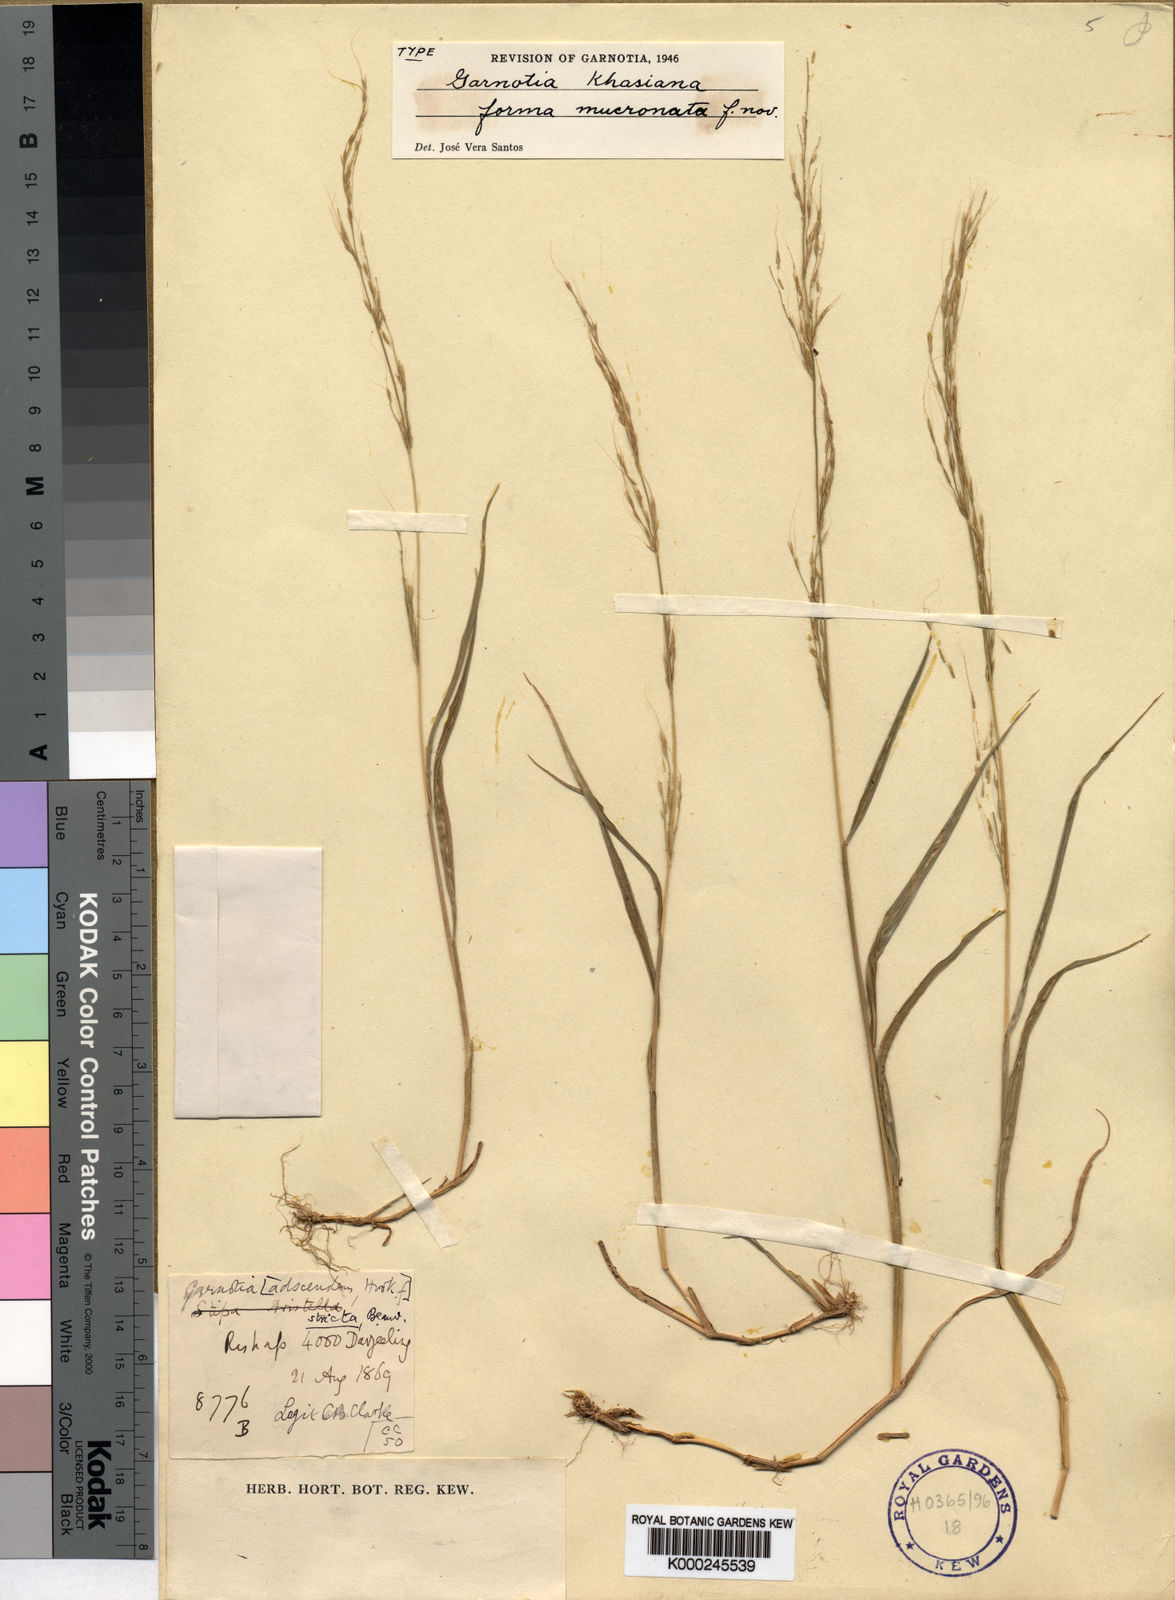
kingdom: Plantae
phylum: Tracheophyta
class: Liliopsida
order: Poales
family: Poaceae
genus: Garnotia
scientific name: Garnotia stricta
